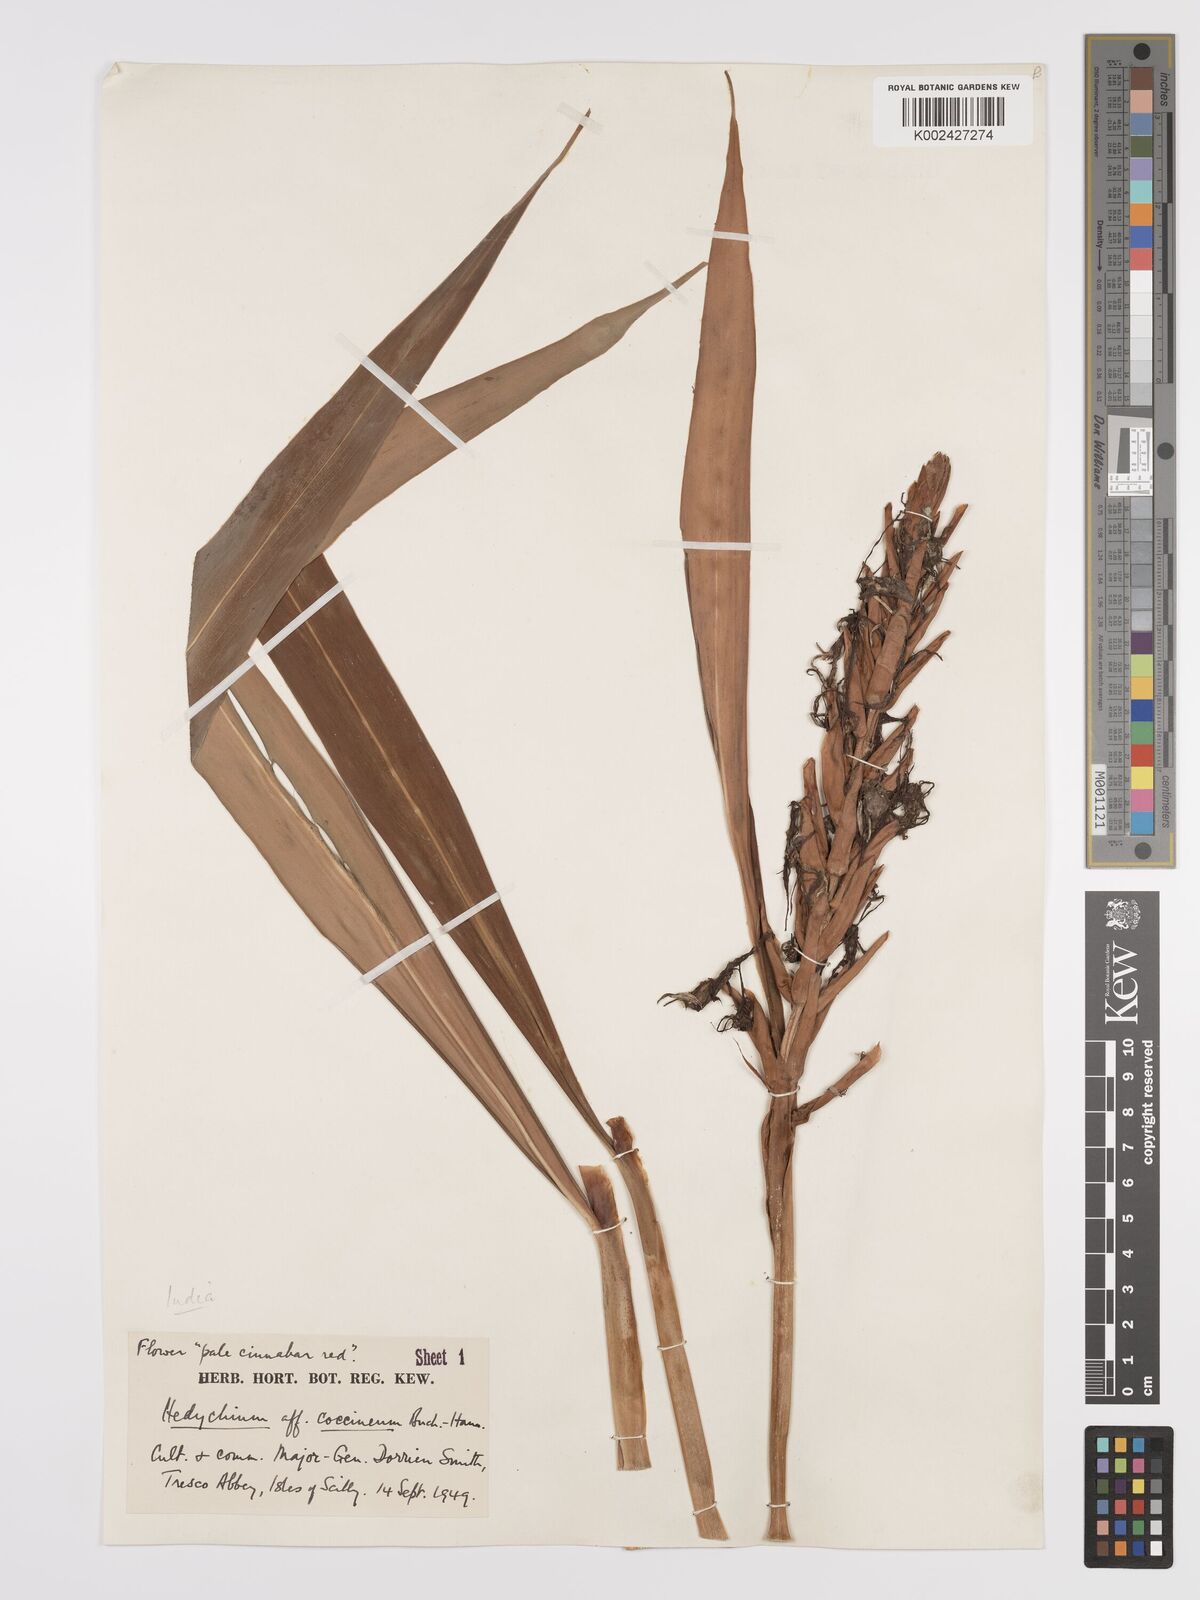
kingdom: Plantae
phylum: Tracheophyta
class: Liliopsida
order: Zingiberales
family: Zingiberaceae
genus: Hedychium
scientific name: Hedychium coccineum
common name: Red ginger-lily
